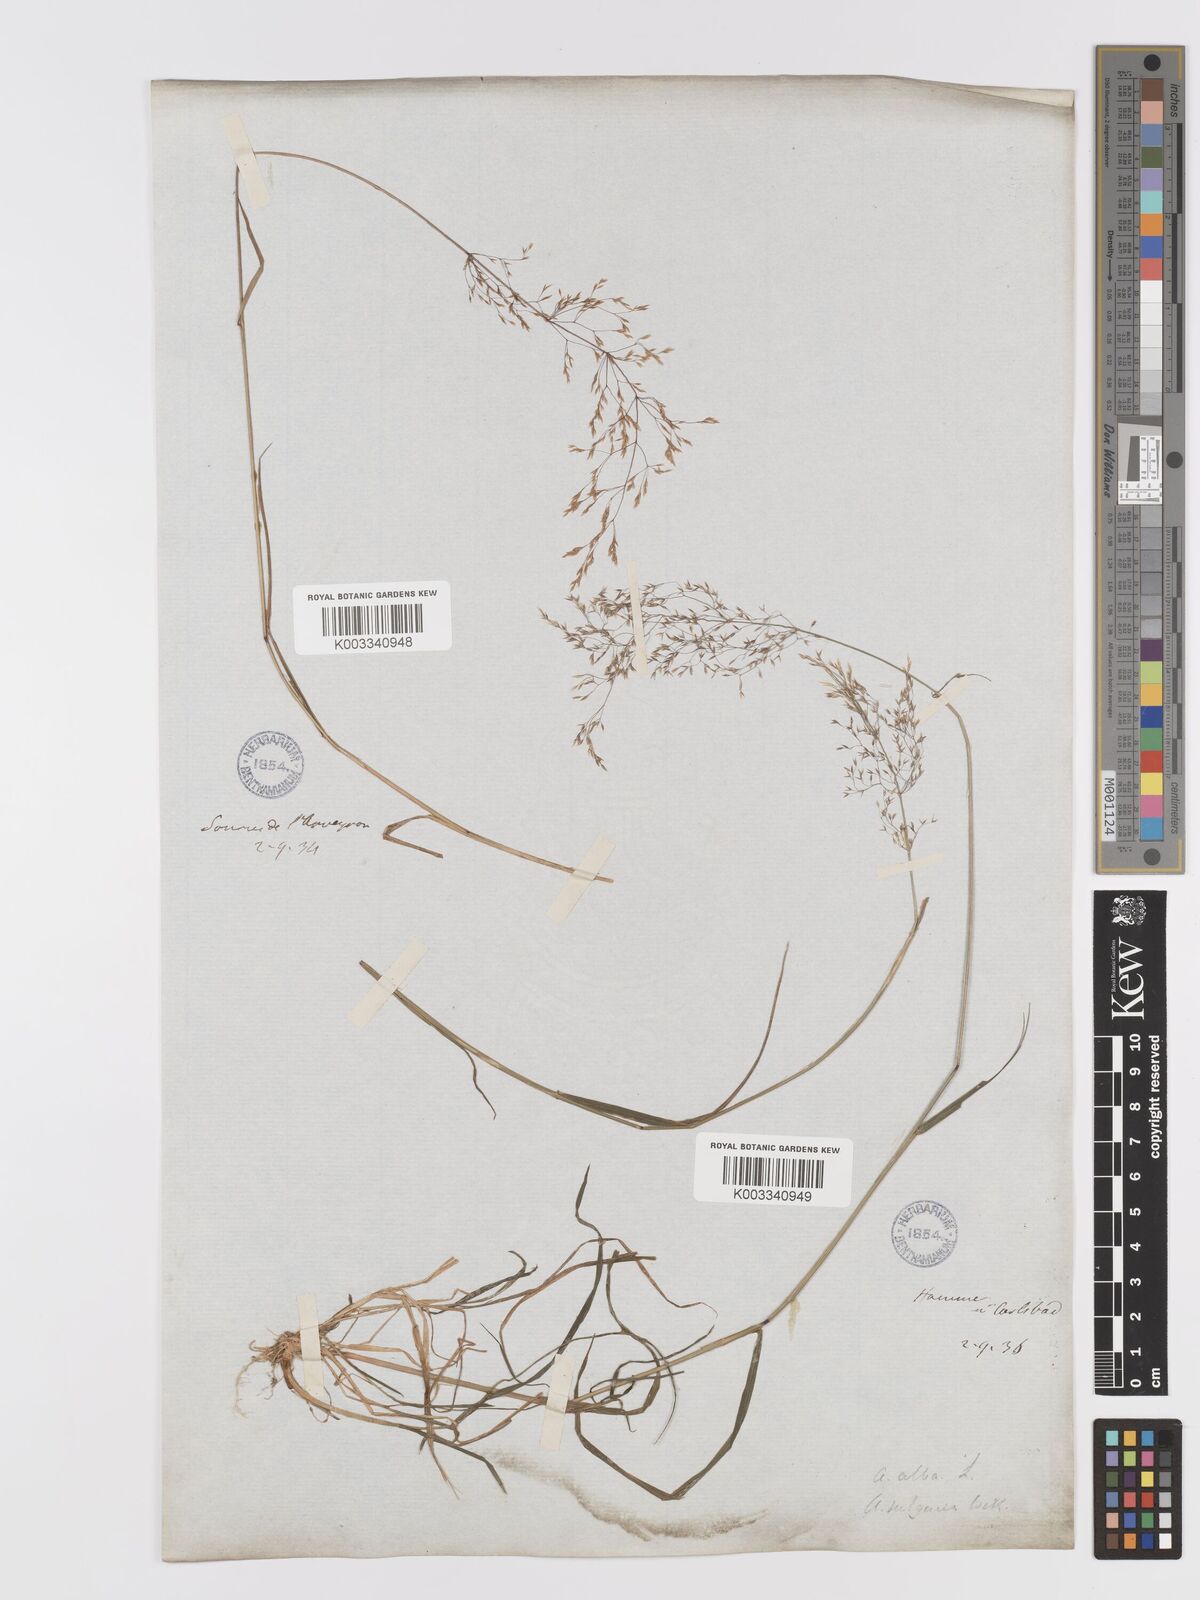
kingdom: Plantae
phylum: Tracheophyta
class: Liliopsida
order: Poales
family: Poaceae
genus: Agrostis
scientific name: Agrostis capillaris
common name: Colonial bentgrass
